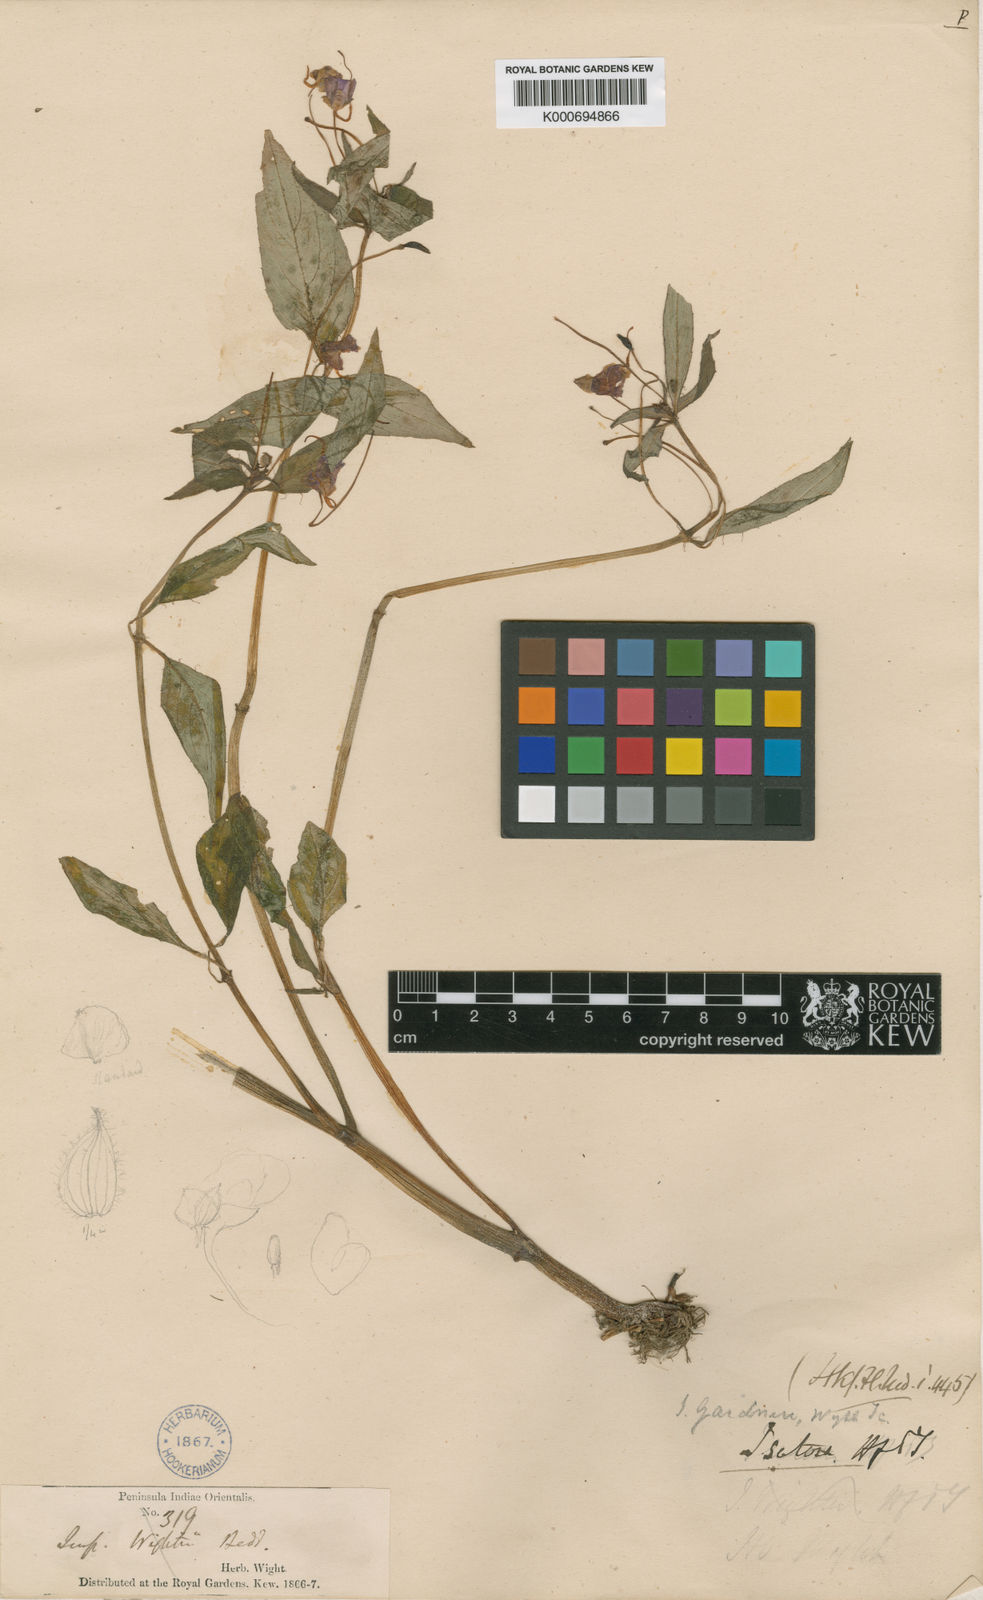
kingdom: Plantae
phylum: Tracheophyta
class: Magnoliopsida
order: Ericales
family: Balsaminaceae
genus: Impatiens
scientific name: Impatiens concinna
